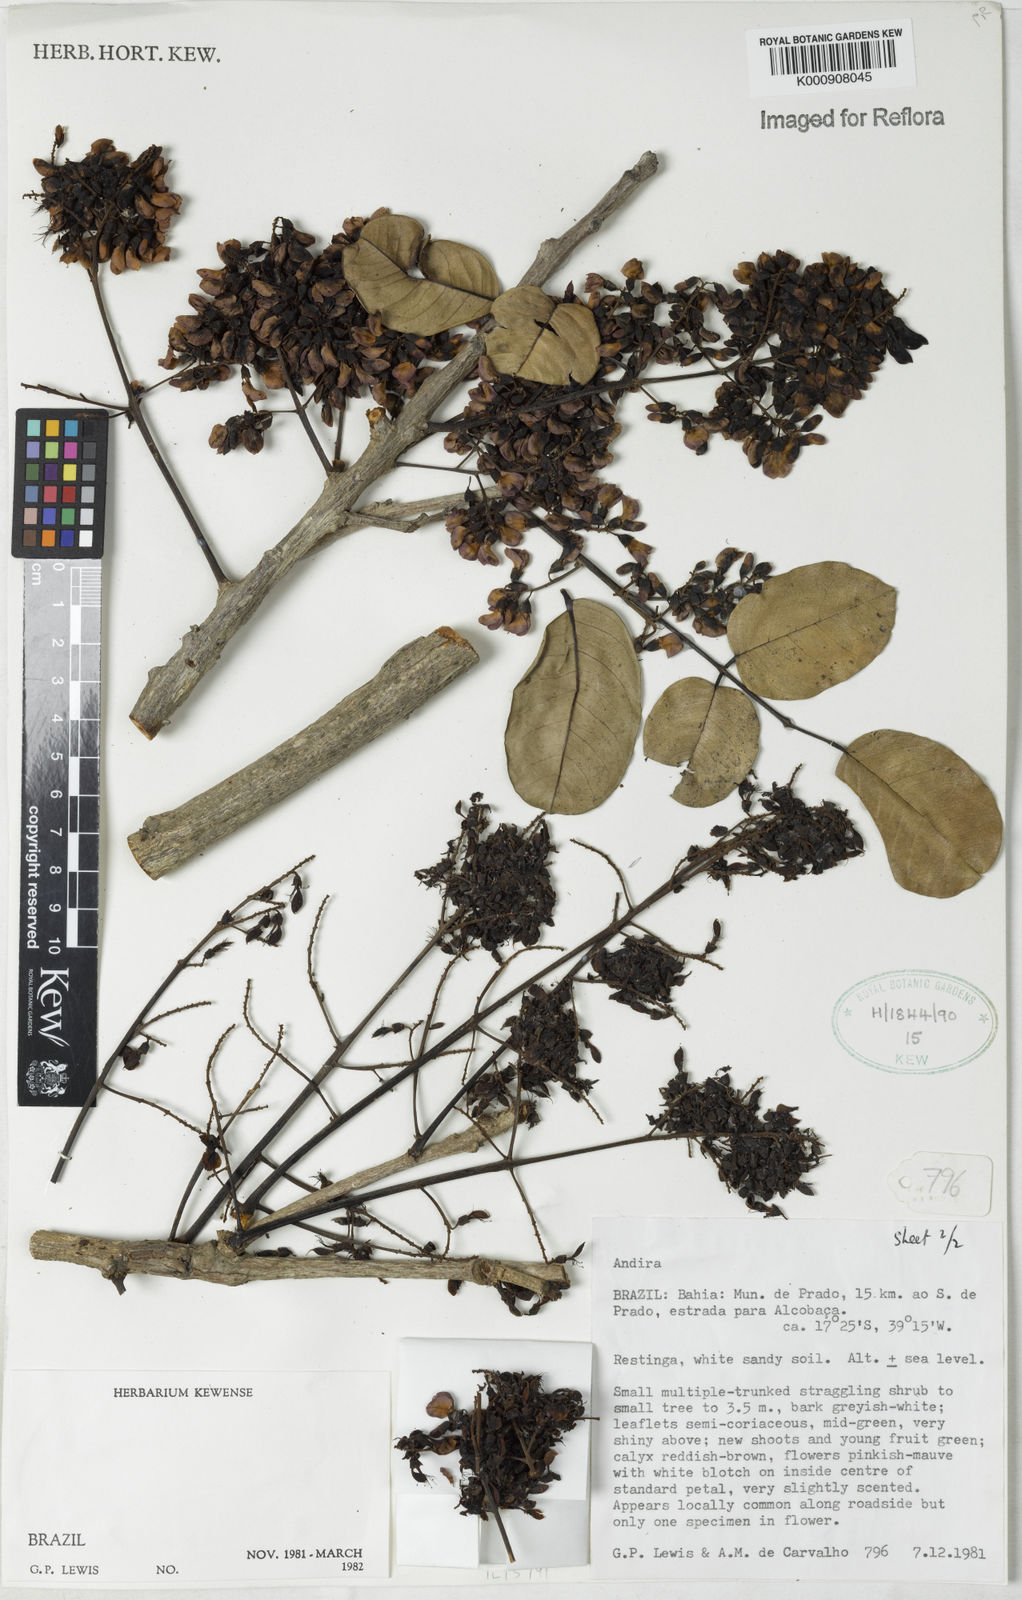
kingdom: Plantae
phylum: Tracheophyta
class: Magnoliopsida
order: Fabales
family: Fabaceae
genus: Andira
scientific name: Andira
